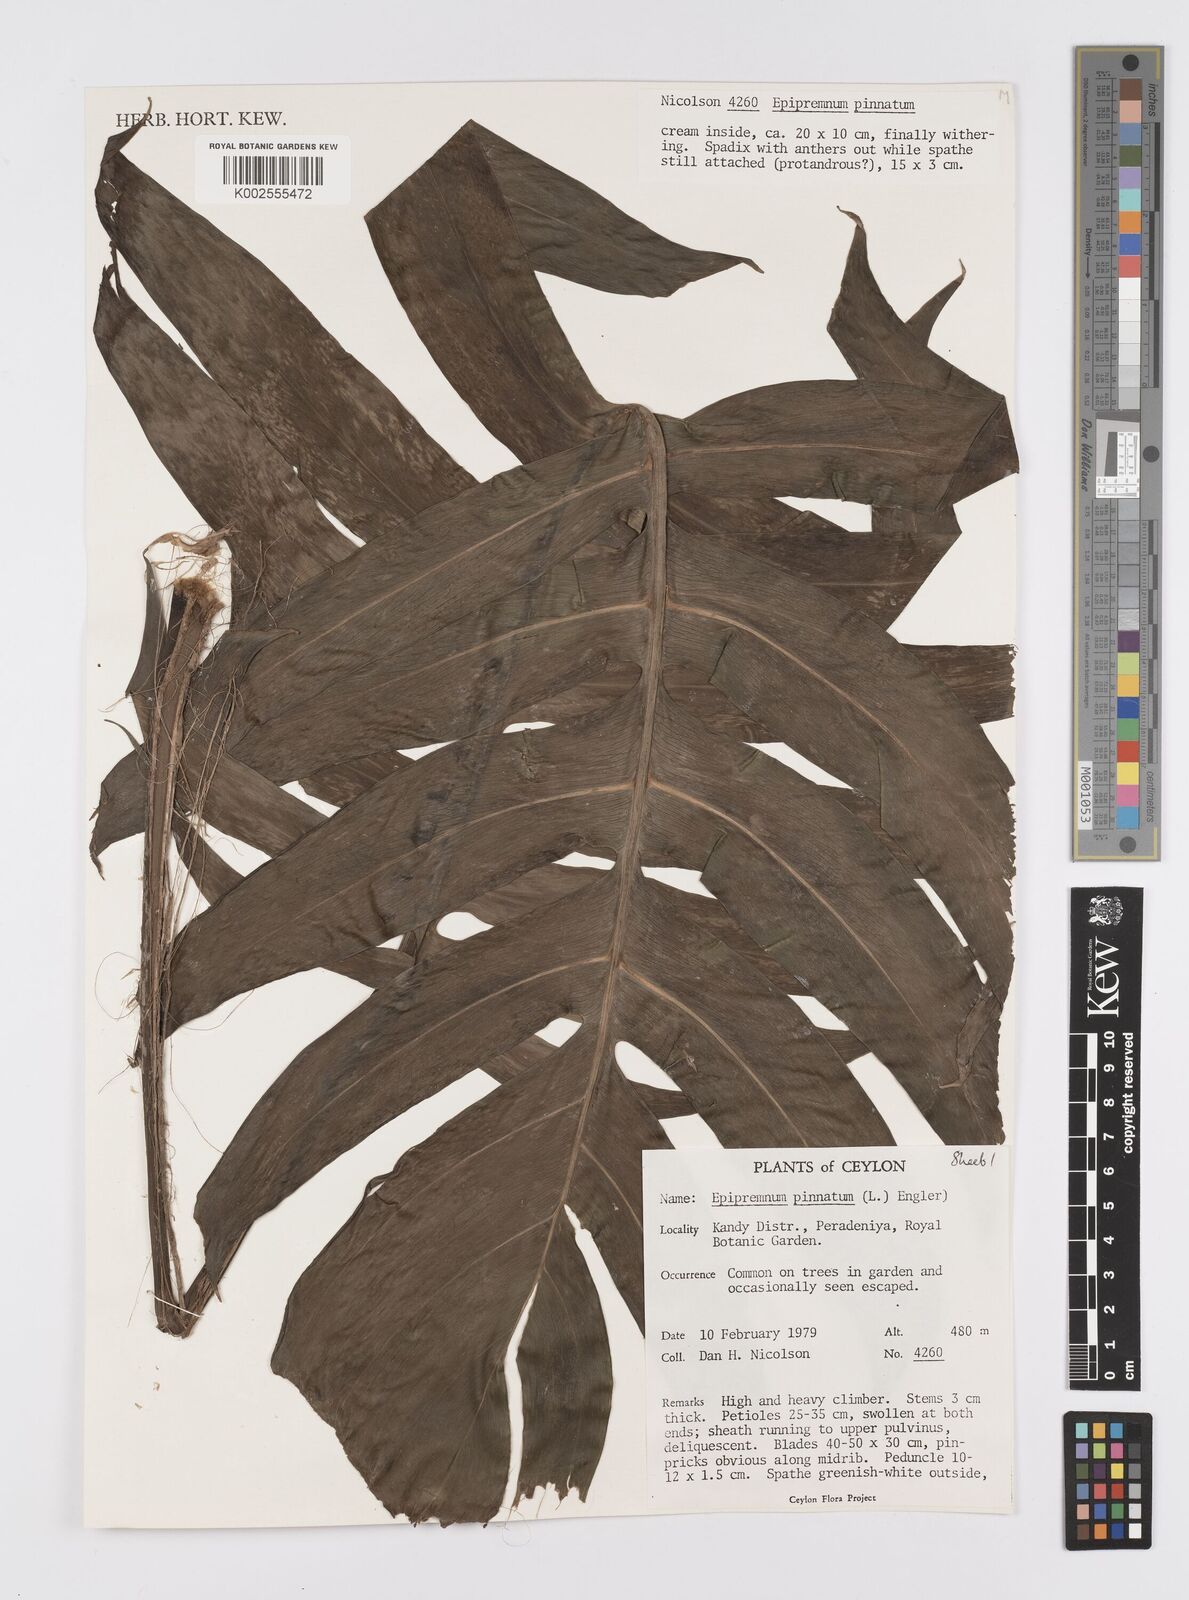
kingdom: Plantae
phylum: Tracheophyta
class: Liliopsida
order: Alismatales
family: Araceae
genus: Epipremnum
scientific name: Epipremnum pinnatum
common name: Centipede tongavine
